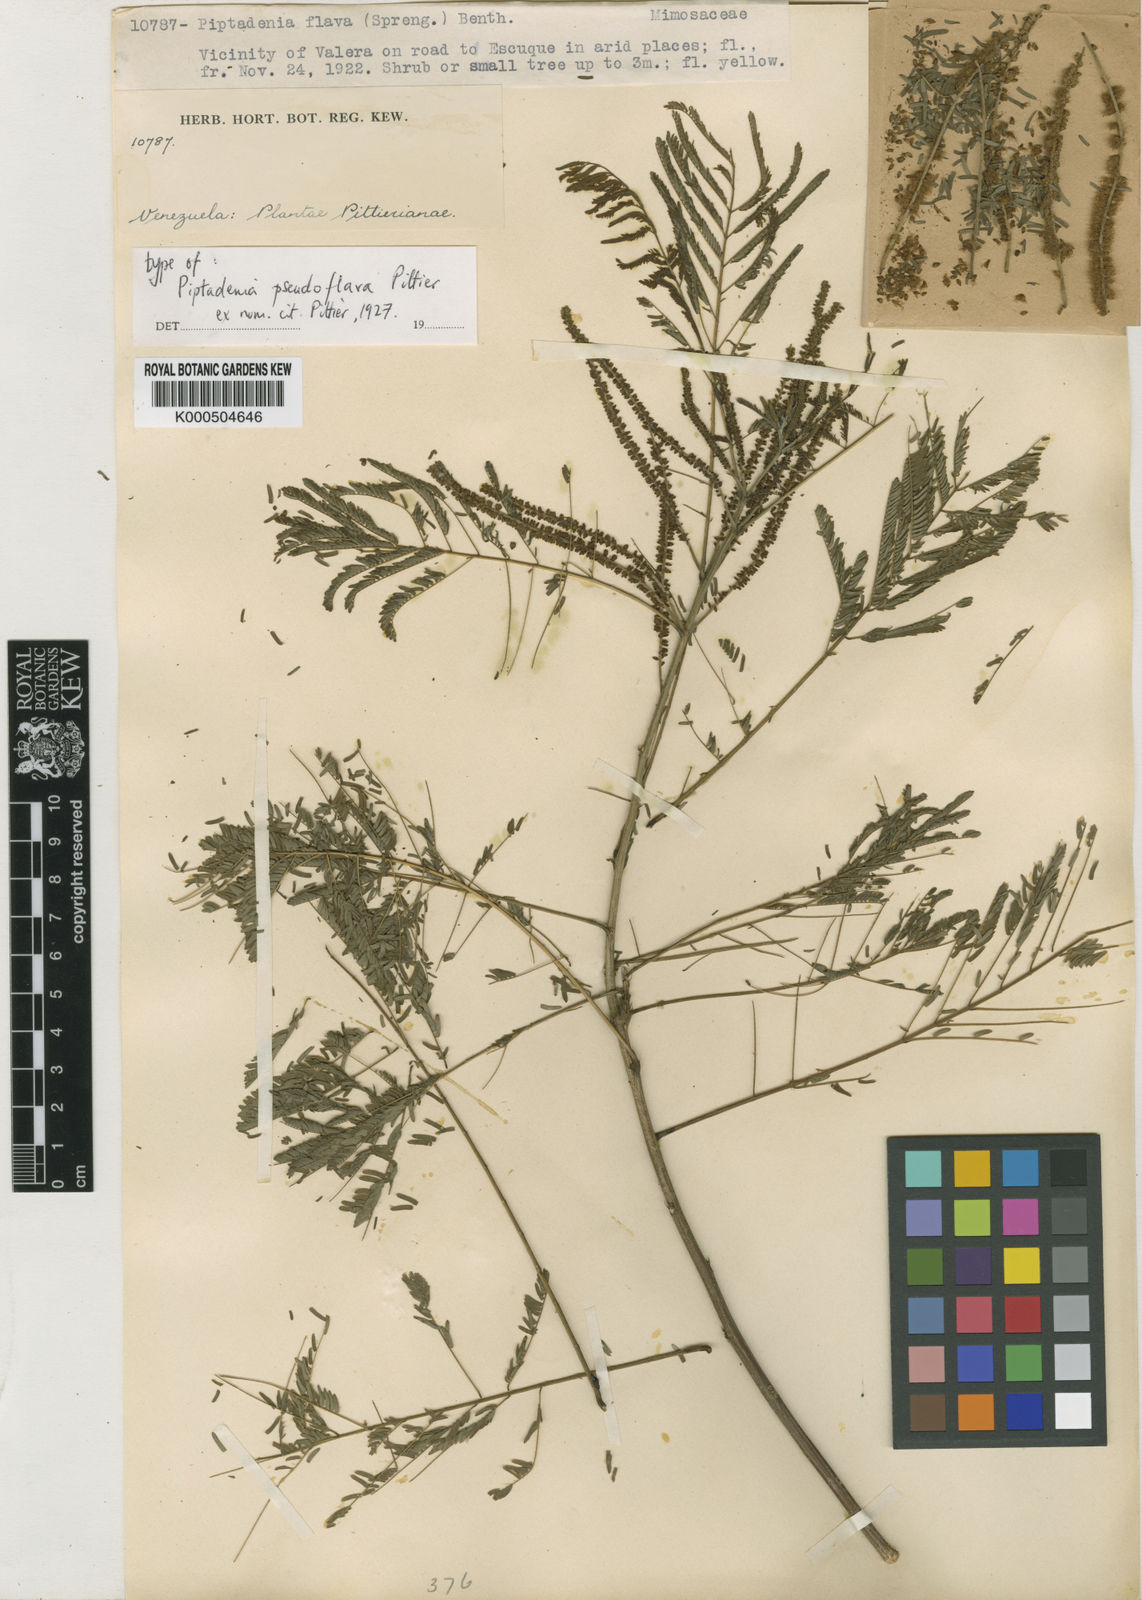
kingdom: Plantae
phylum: Tracheophyta
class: Magnoliopsida
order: Fabales
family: Fabaceae
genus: Piptadenia
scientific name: Piptadenia retusa
